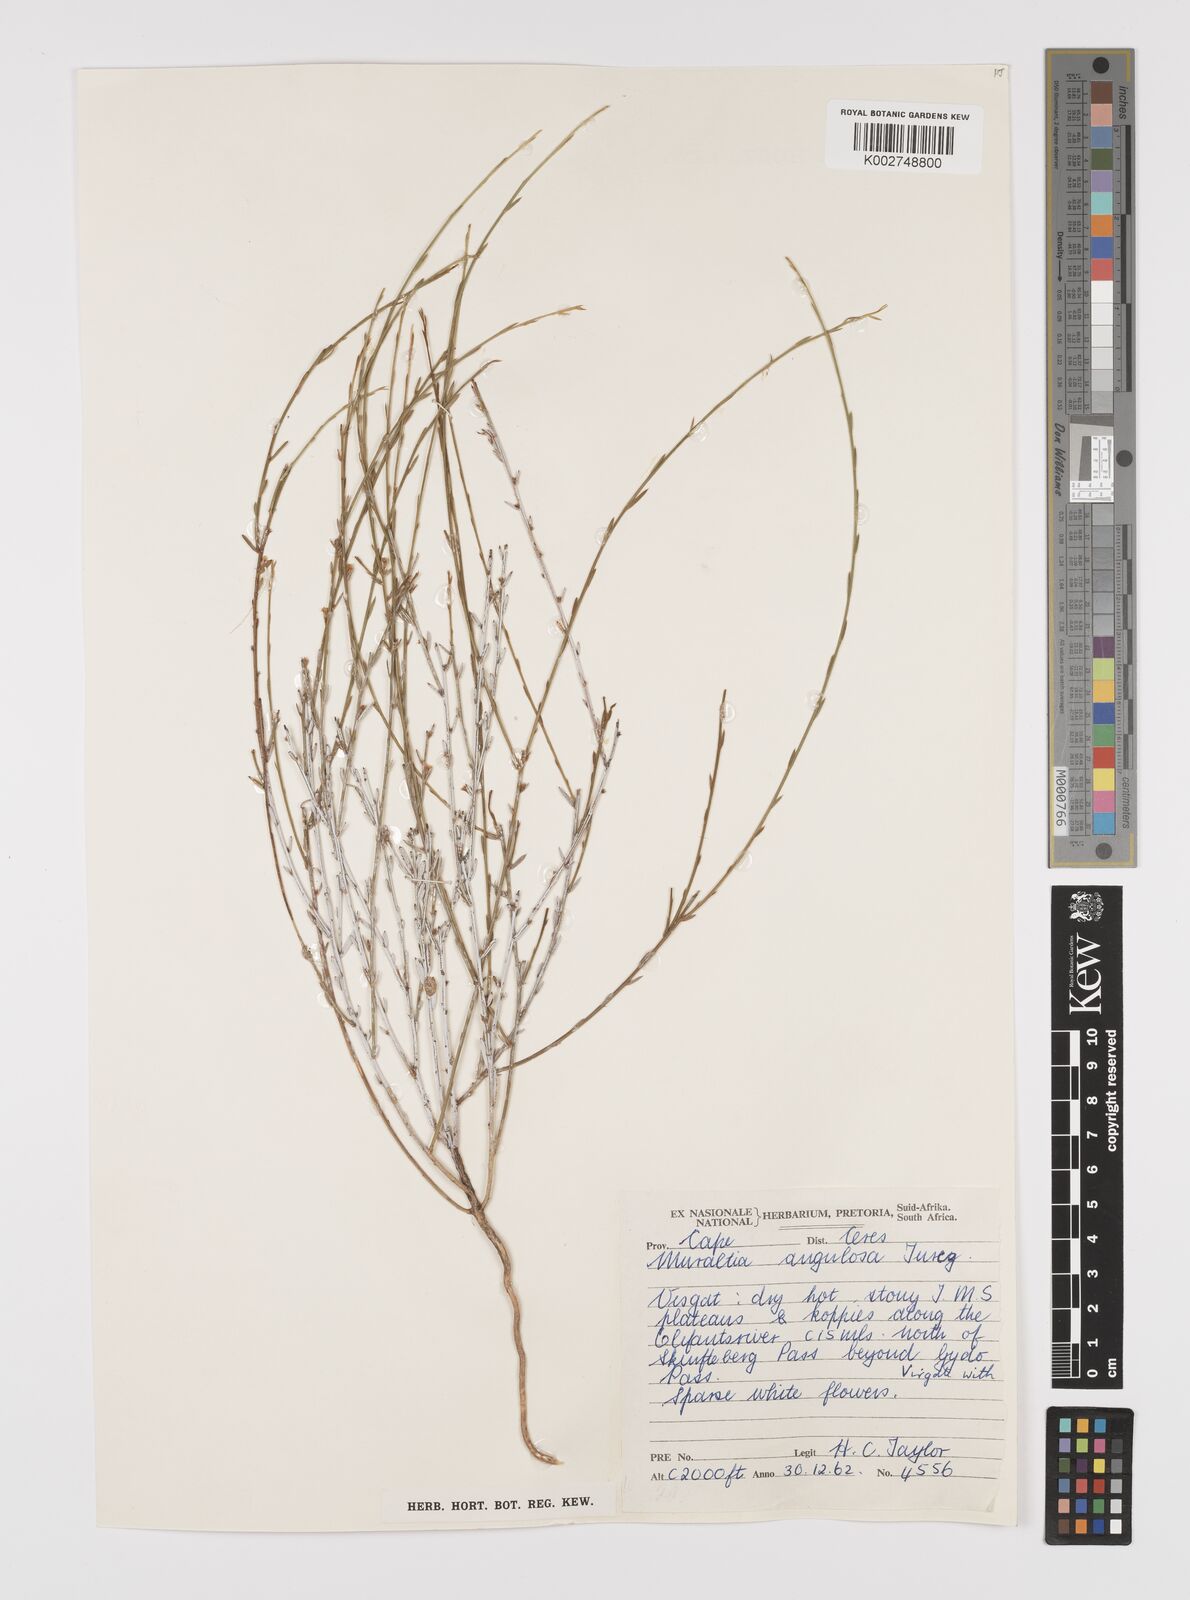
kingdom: Plantae
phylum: Tracheophyta
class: Magnoliopsida
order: Fabales
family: Polygalaceae
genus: Muraltia
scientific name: Muraltia angulosa
